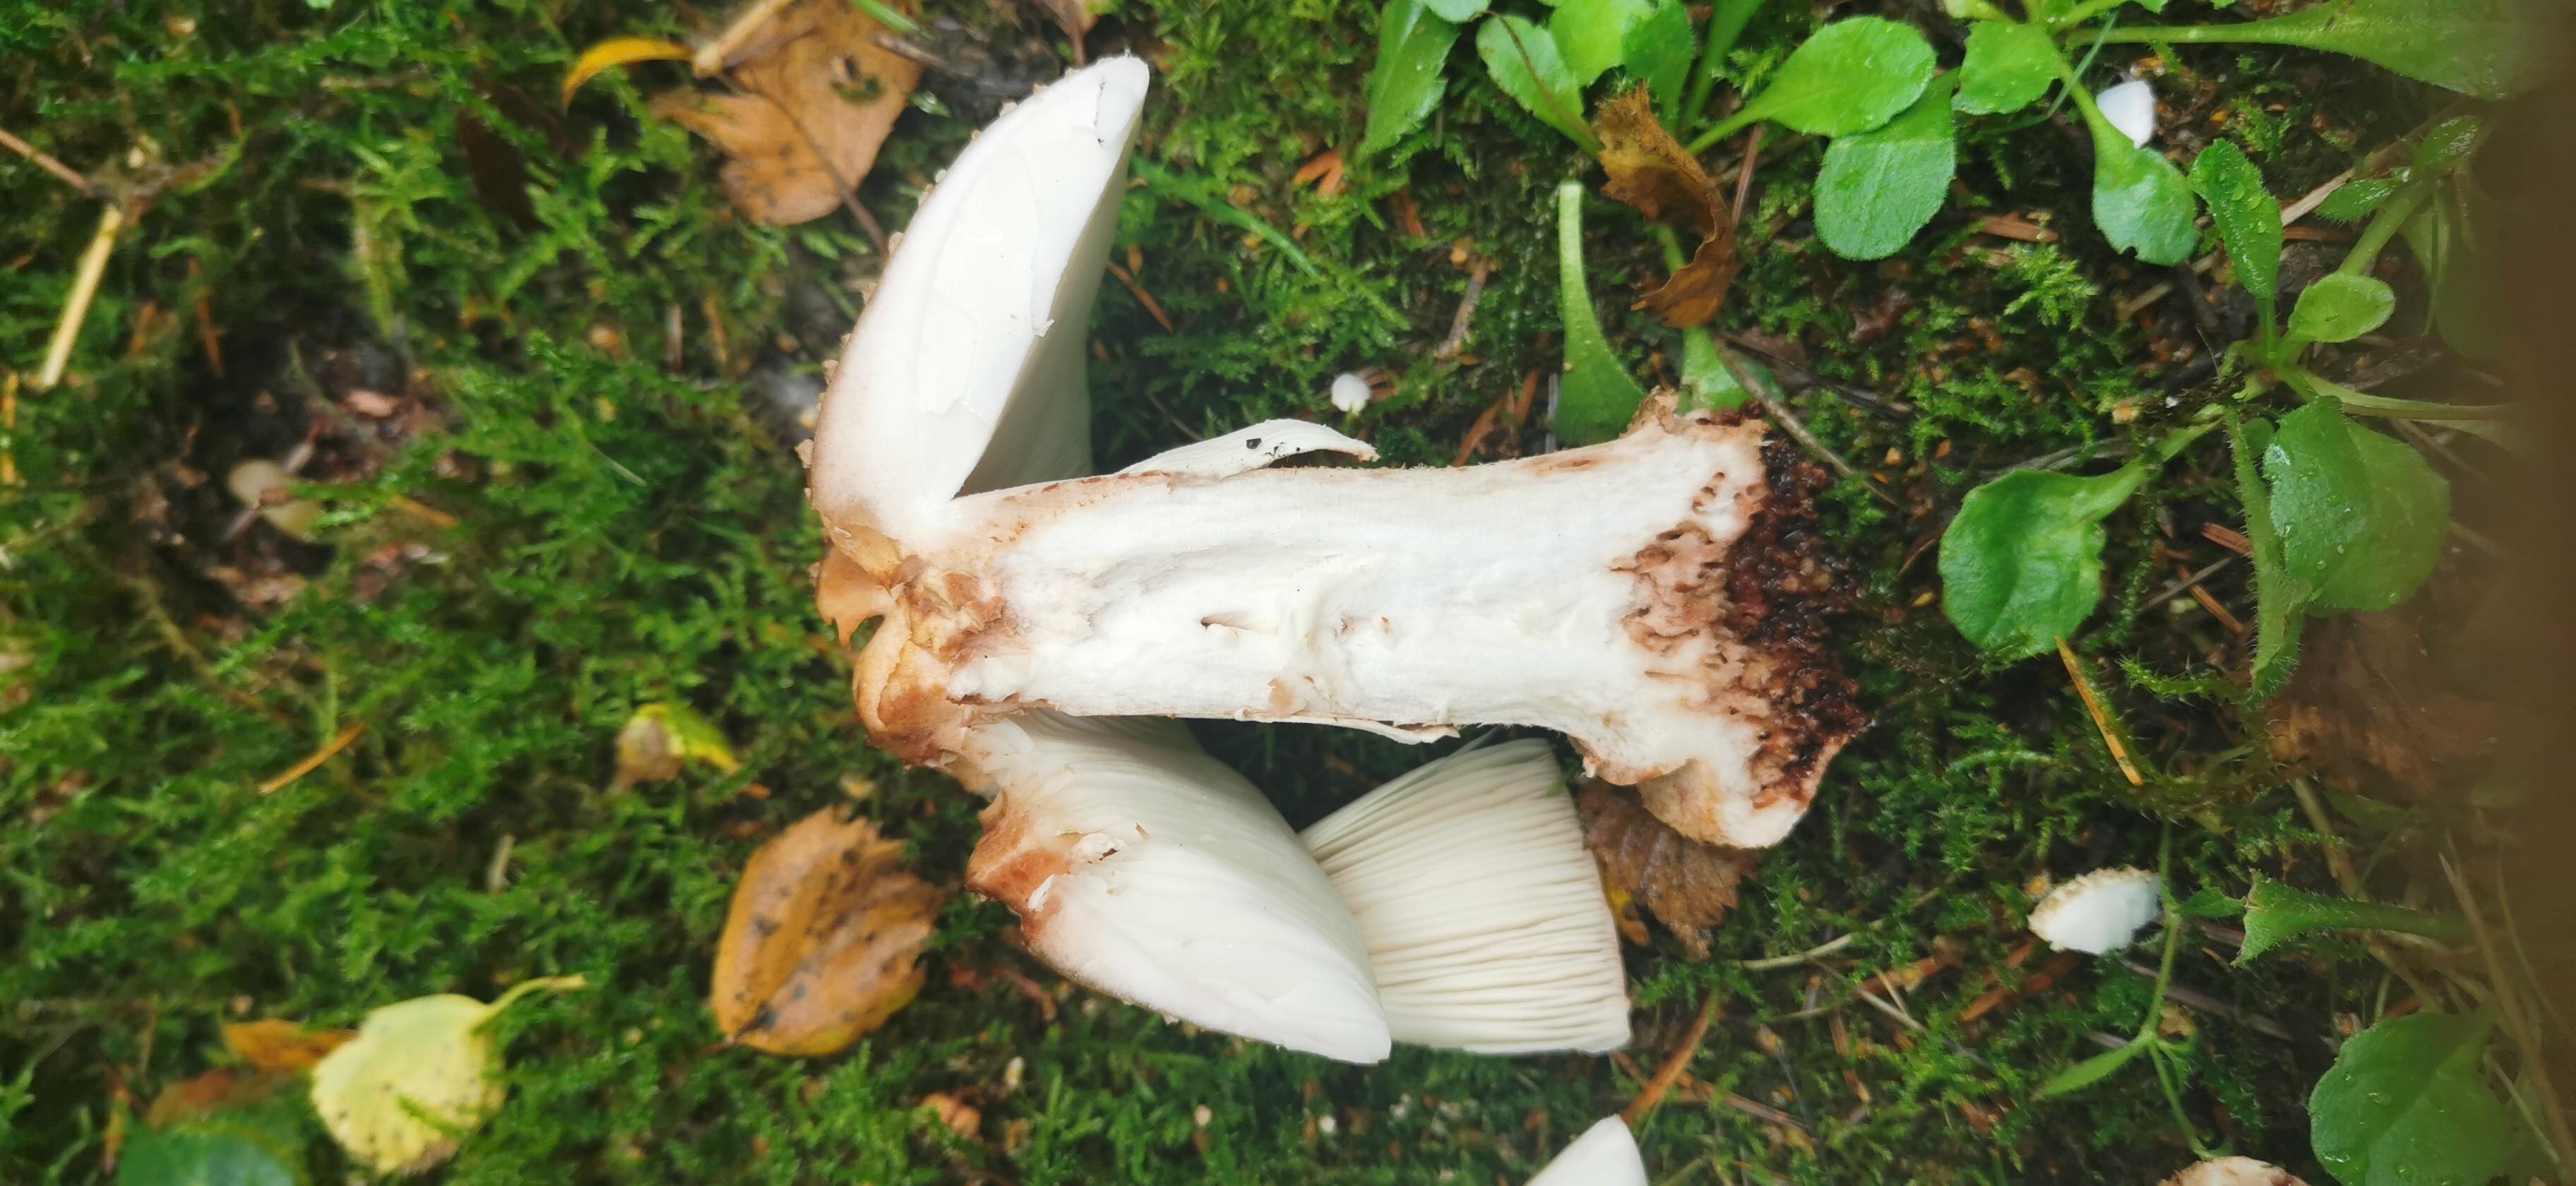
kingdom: Fungi
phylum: Basidiomycota
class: Agaricomycetes
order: Agaricales
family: Amanitaceae
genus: Amanita
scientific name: Amanita rubescens
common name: rødmende fluesvamp
